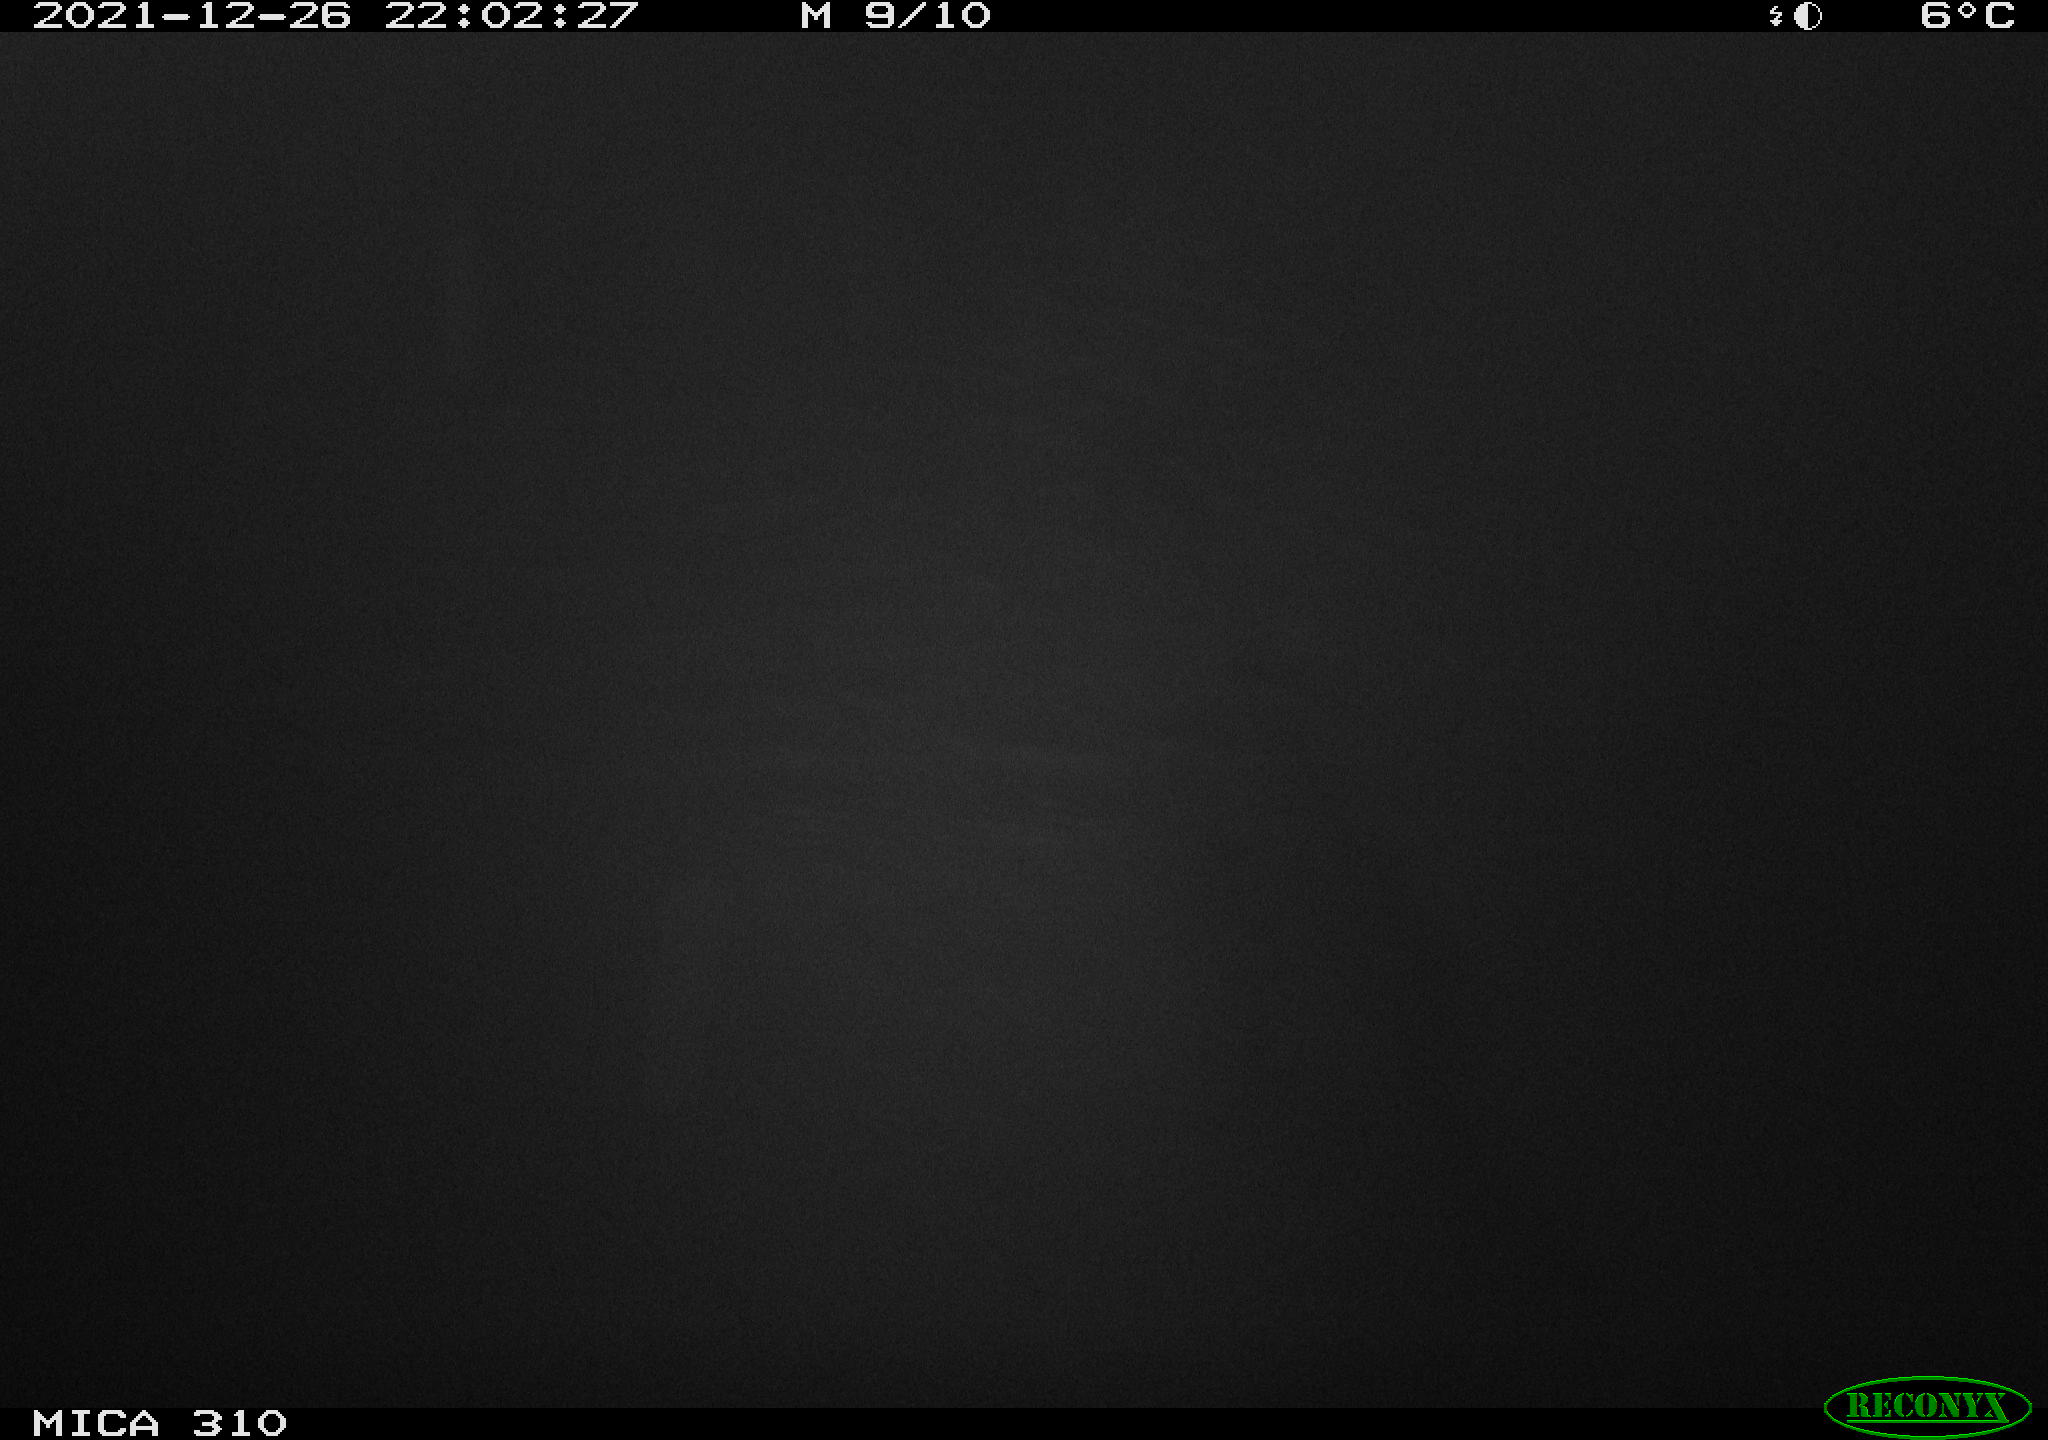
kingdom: Animalia
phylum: Chordata
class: Aves
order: Anseriformes
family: Anatidae
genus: Anas
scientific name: Anas platyrhynchos
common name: Mallard
